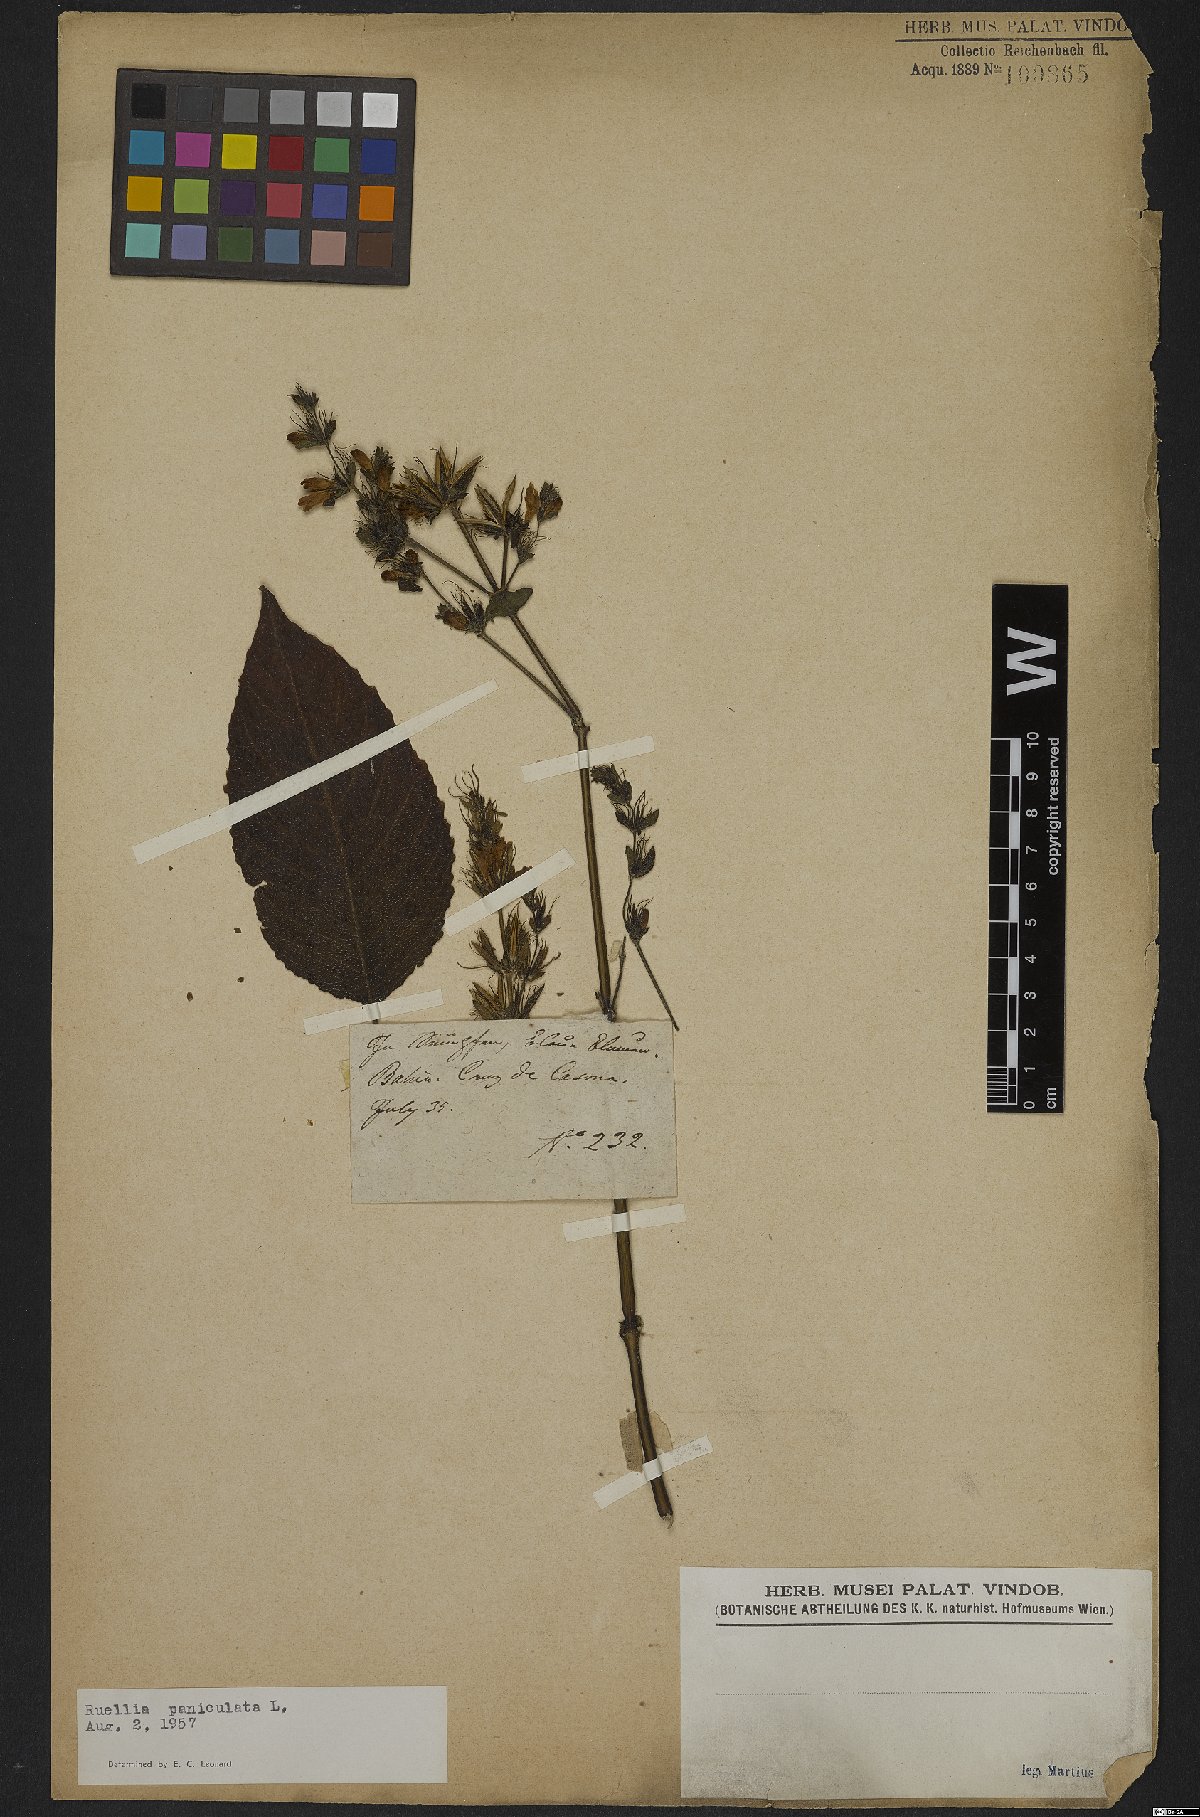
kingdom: Plantae
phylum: Tracheophyta
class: Magnoliopsida
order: Lamiales
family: Acanthaceae
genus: Barleria
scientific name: Barleria tomentosa
